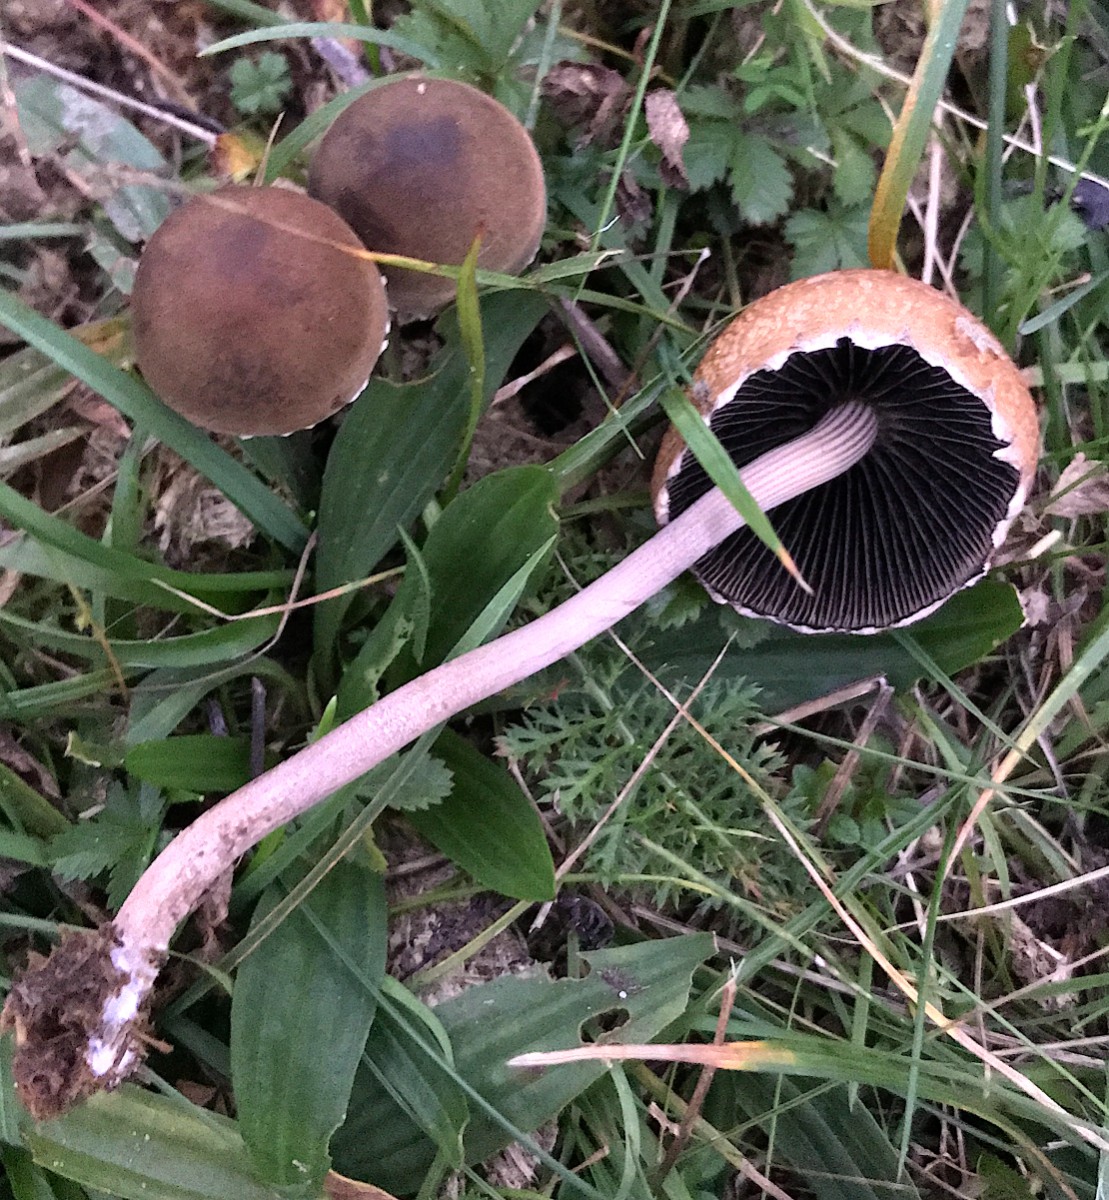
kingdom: Fungi
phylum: Basidiomycota
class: Agaricomycetes
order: Agaricales
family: Bolbitiaceae
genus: Panaeolus
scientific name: Panaeolus papilionaceus
